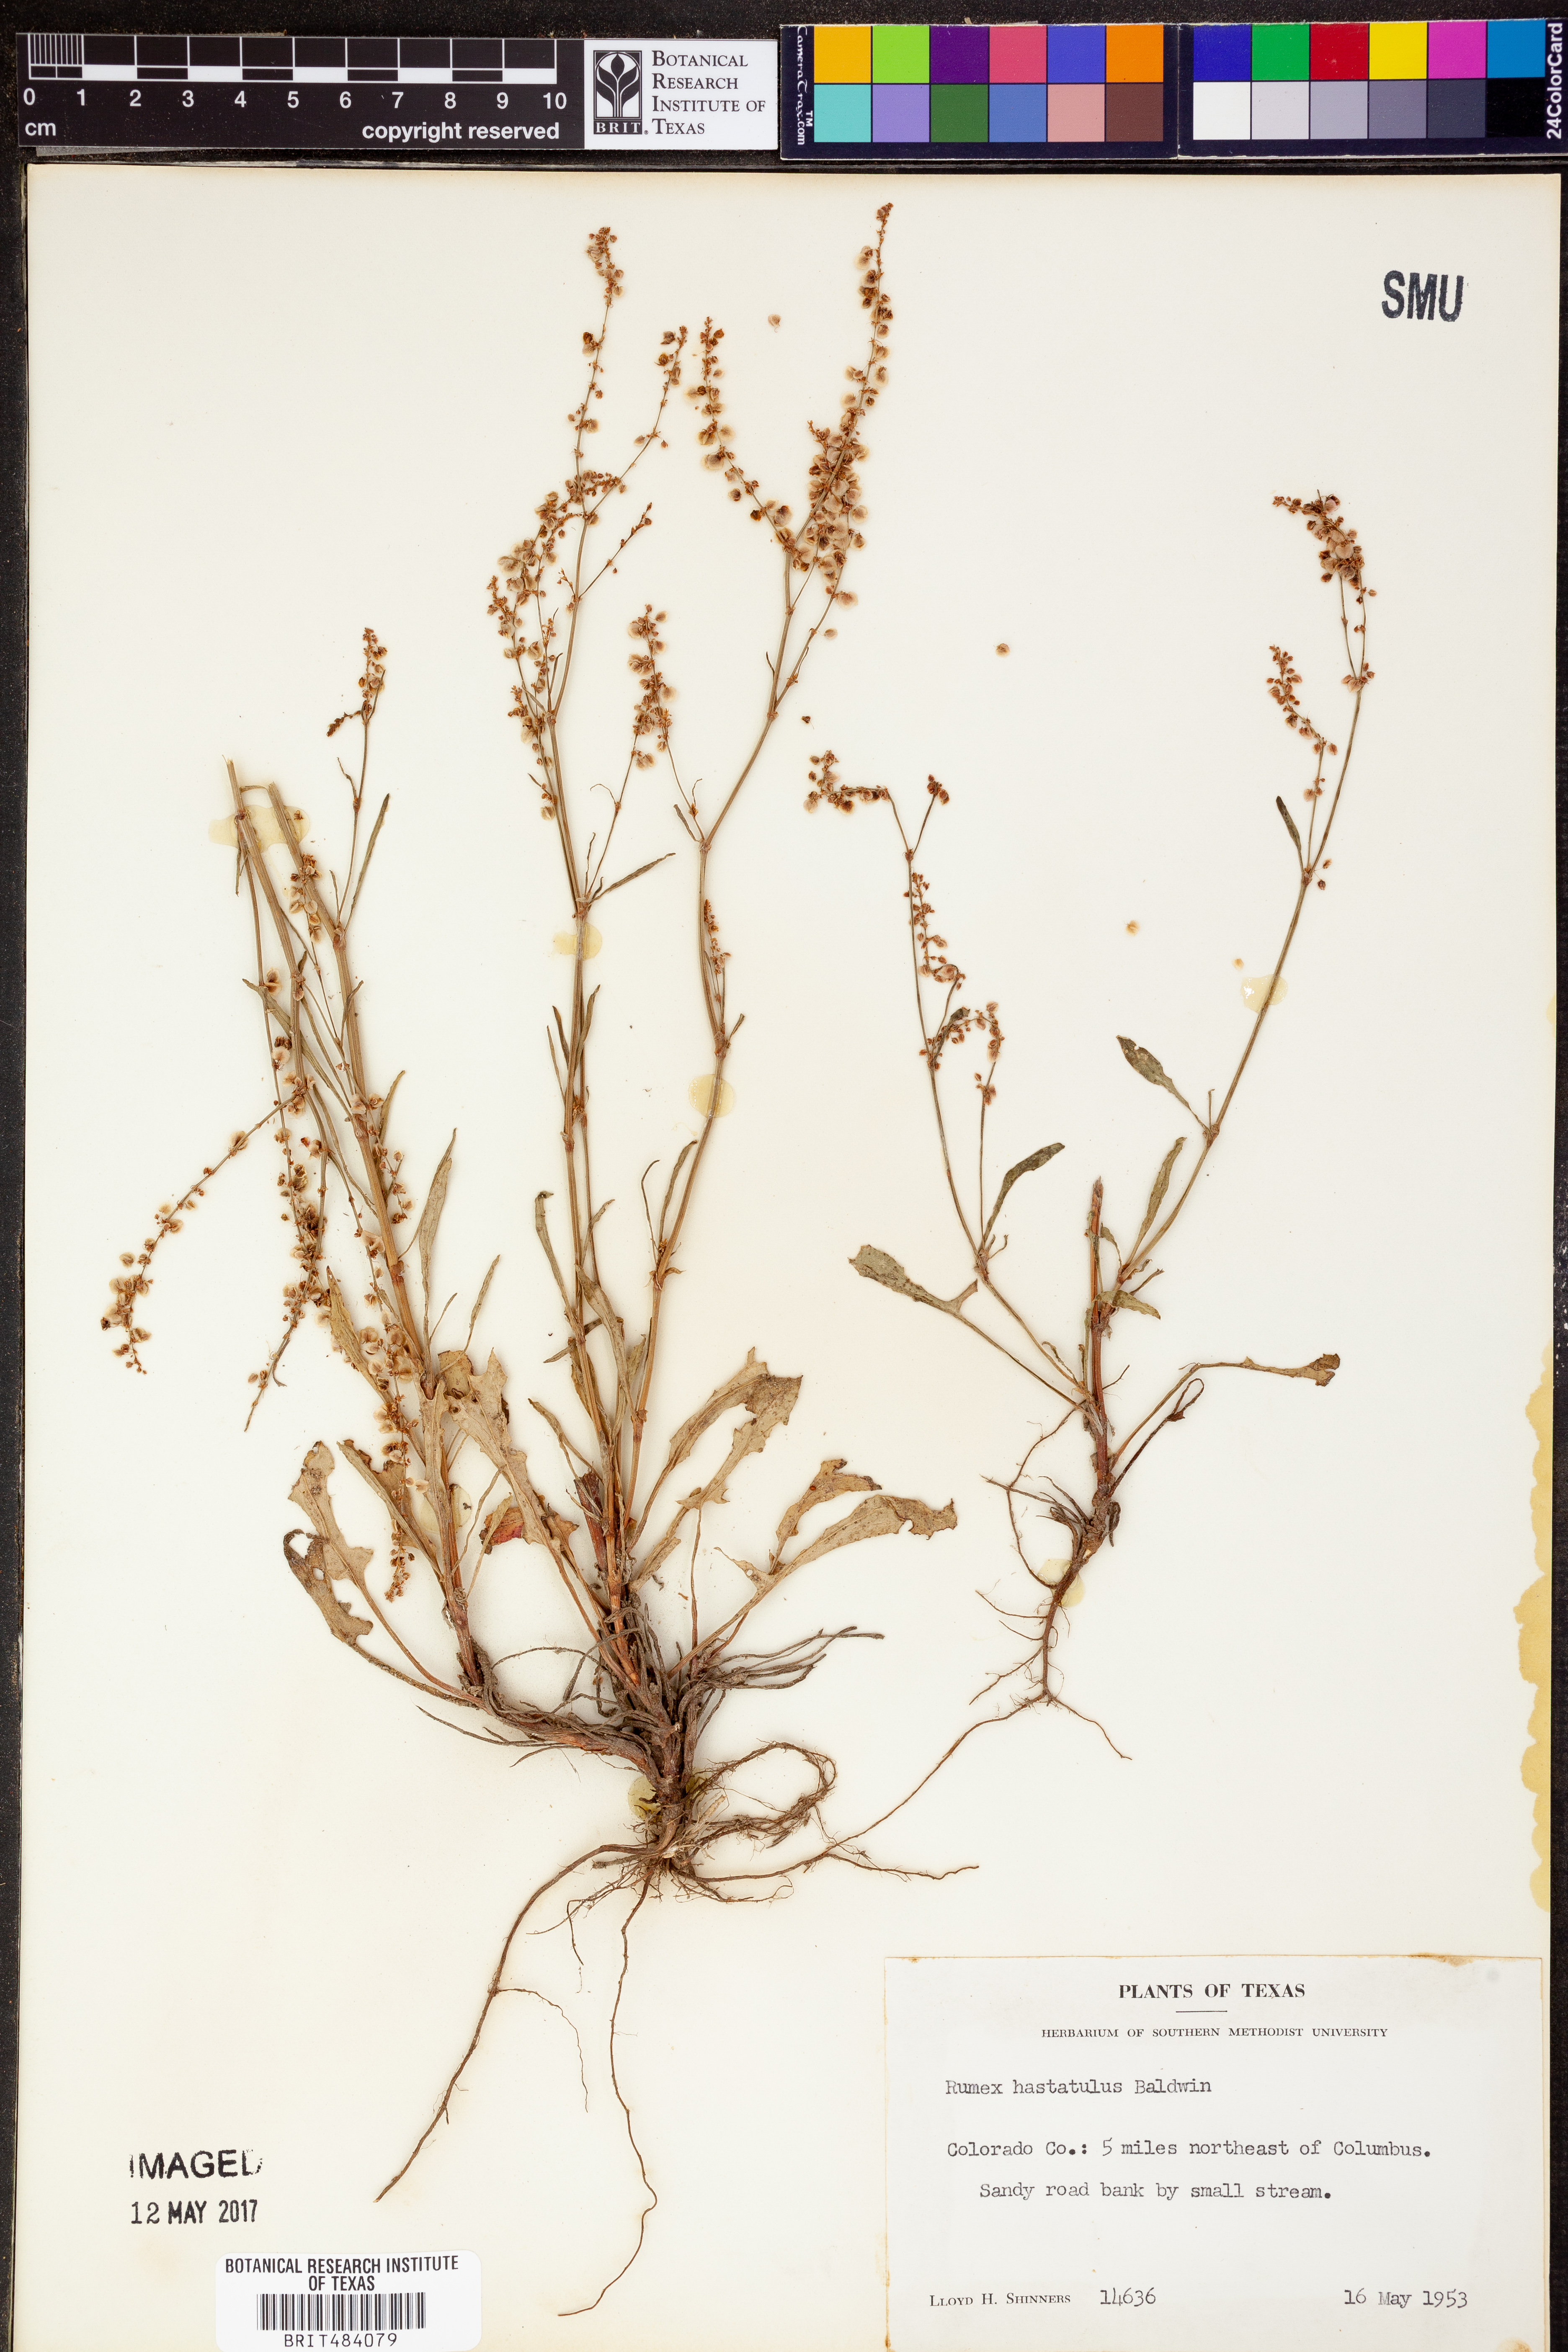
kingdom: Plantae
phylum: Tracheophyta
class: Magnoliopsida
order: Caryophyllales
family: Polygonaceae
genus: Rumex
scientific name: Rumex hastatulus
